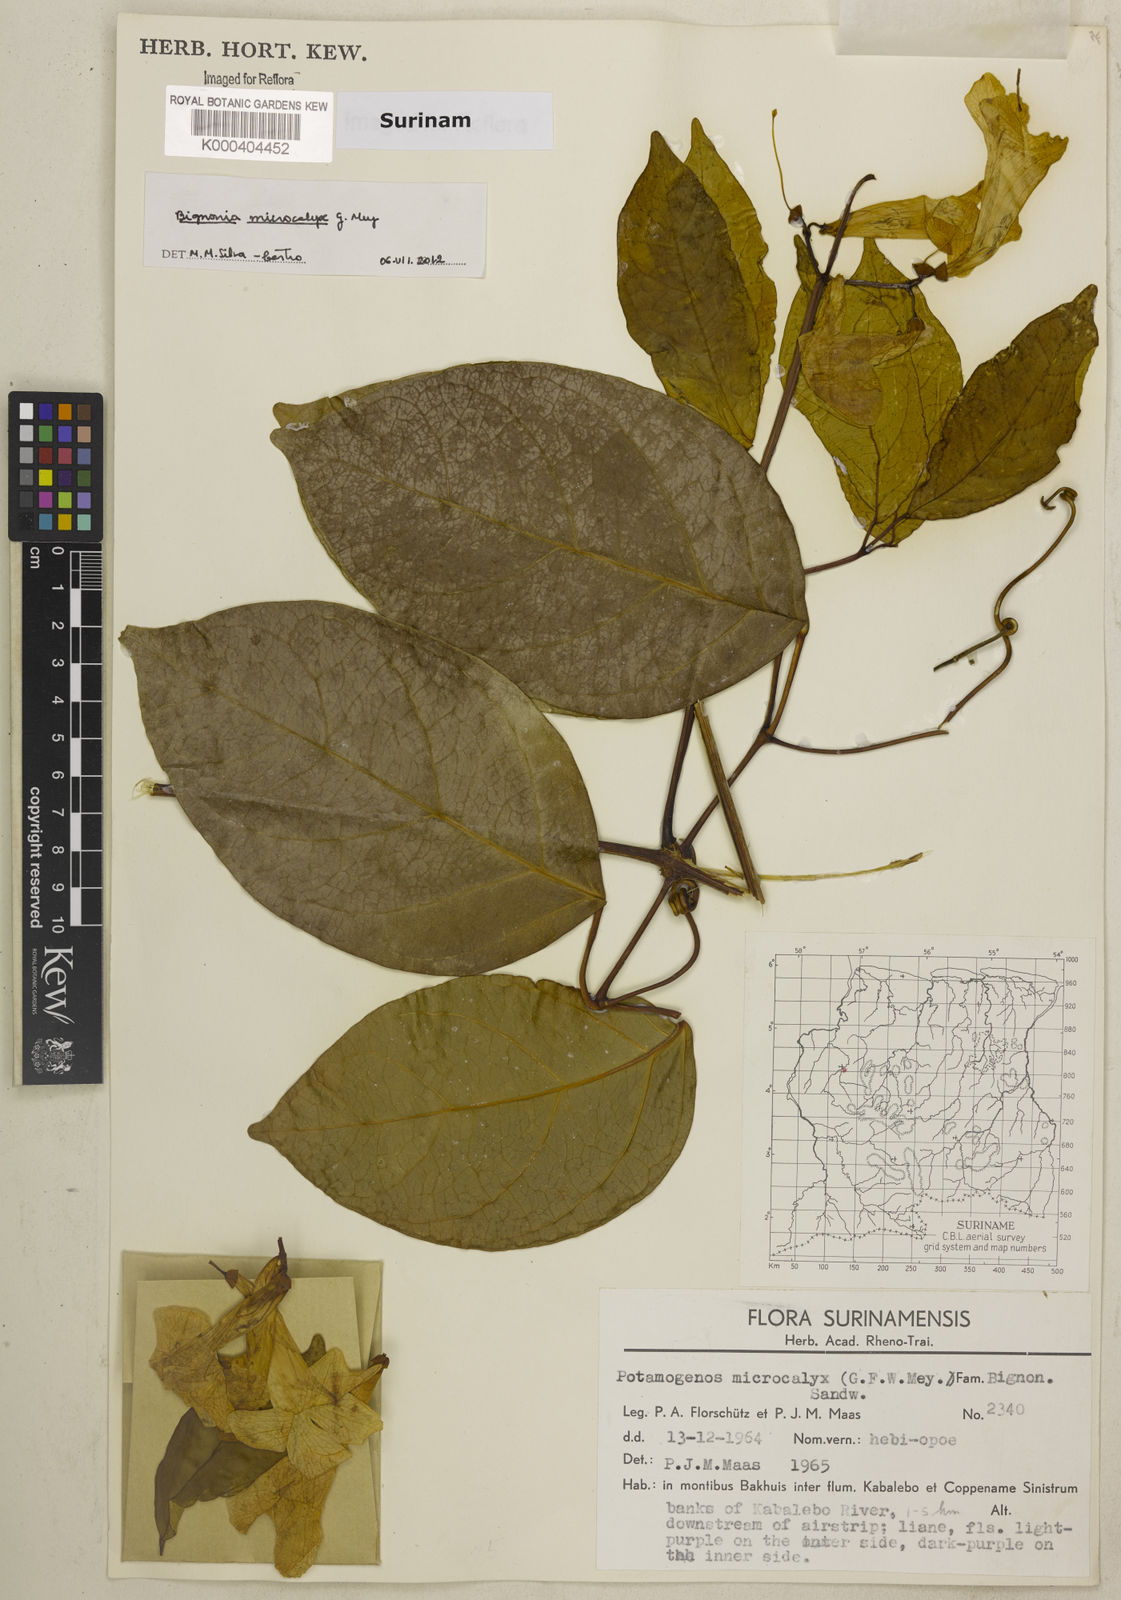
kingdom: Plantae
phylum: Tracheophyta
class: Magnoliopsida
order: Lamiales
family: Bignoniaceae
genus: Bignonia
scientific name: Bignonia microcalyx
